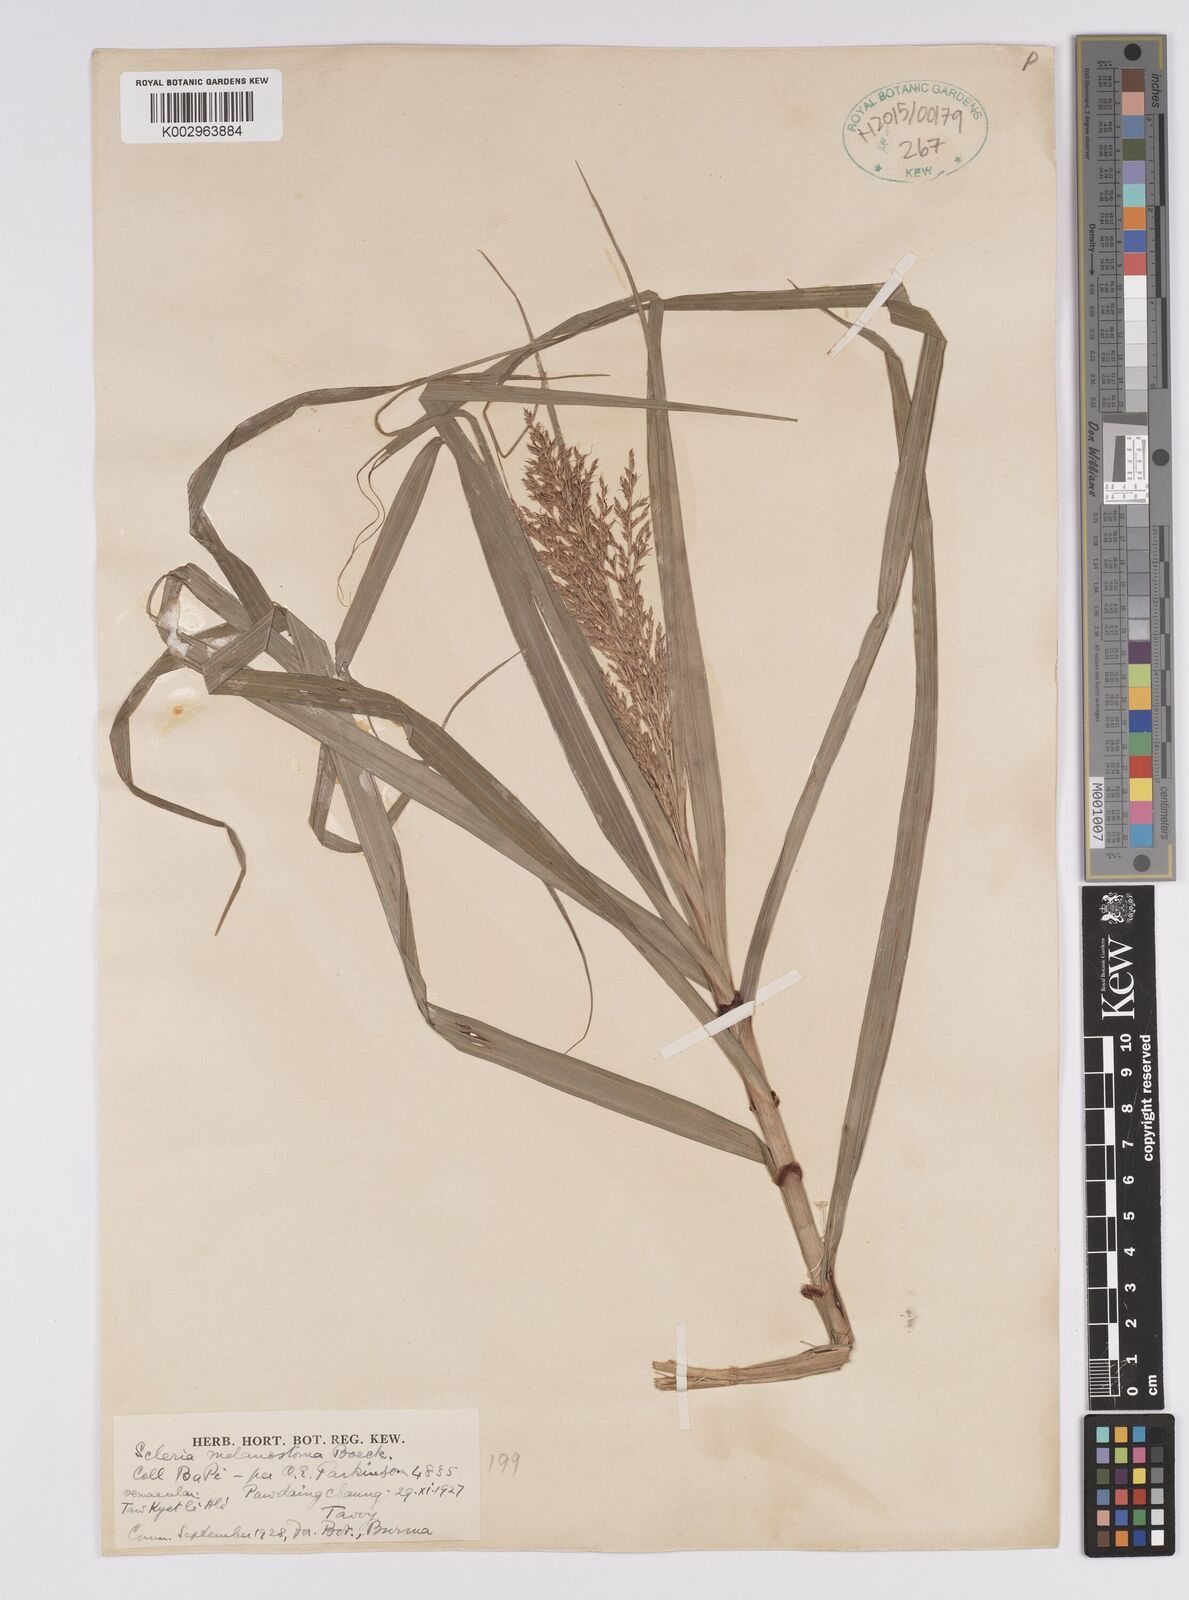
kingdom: Plantae
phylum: Tracheophyta
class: Liliopsida
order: Poales
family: Cyperaceae
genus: Scleria
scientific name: Scleria terrestris
